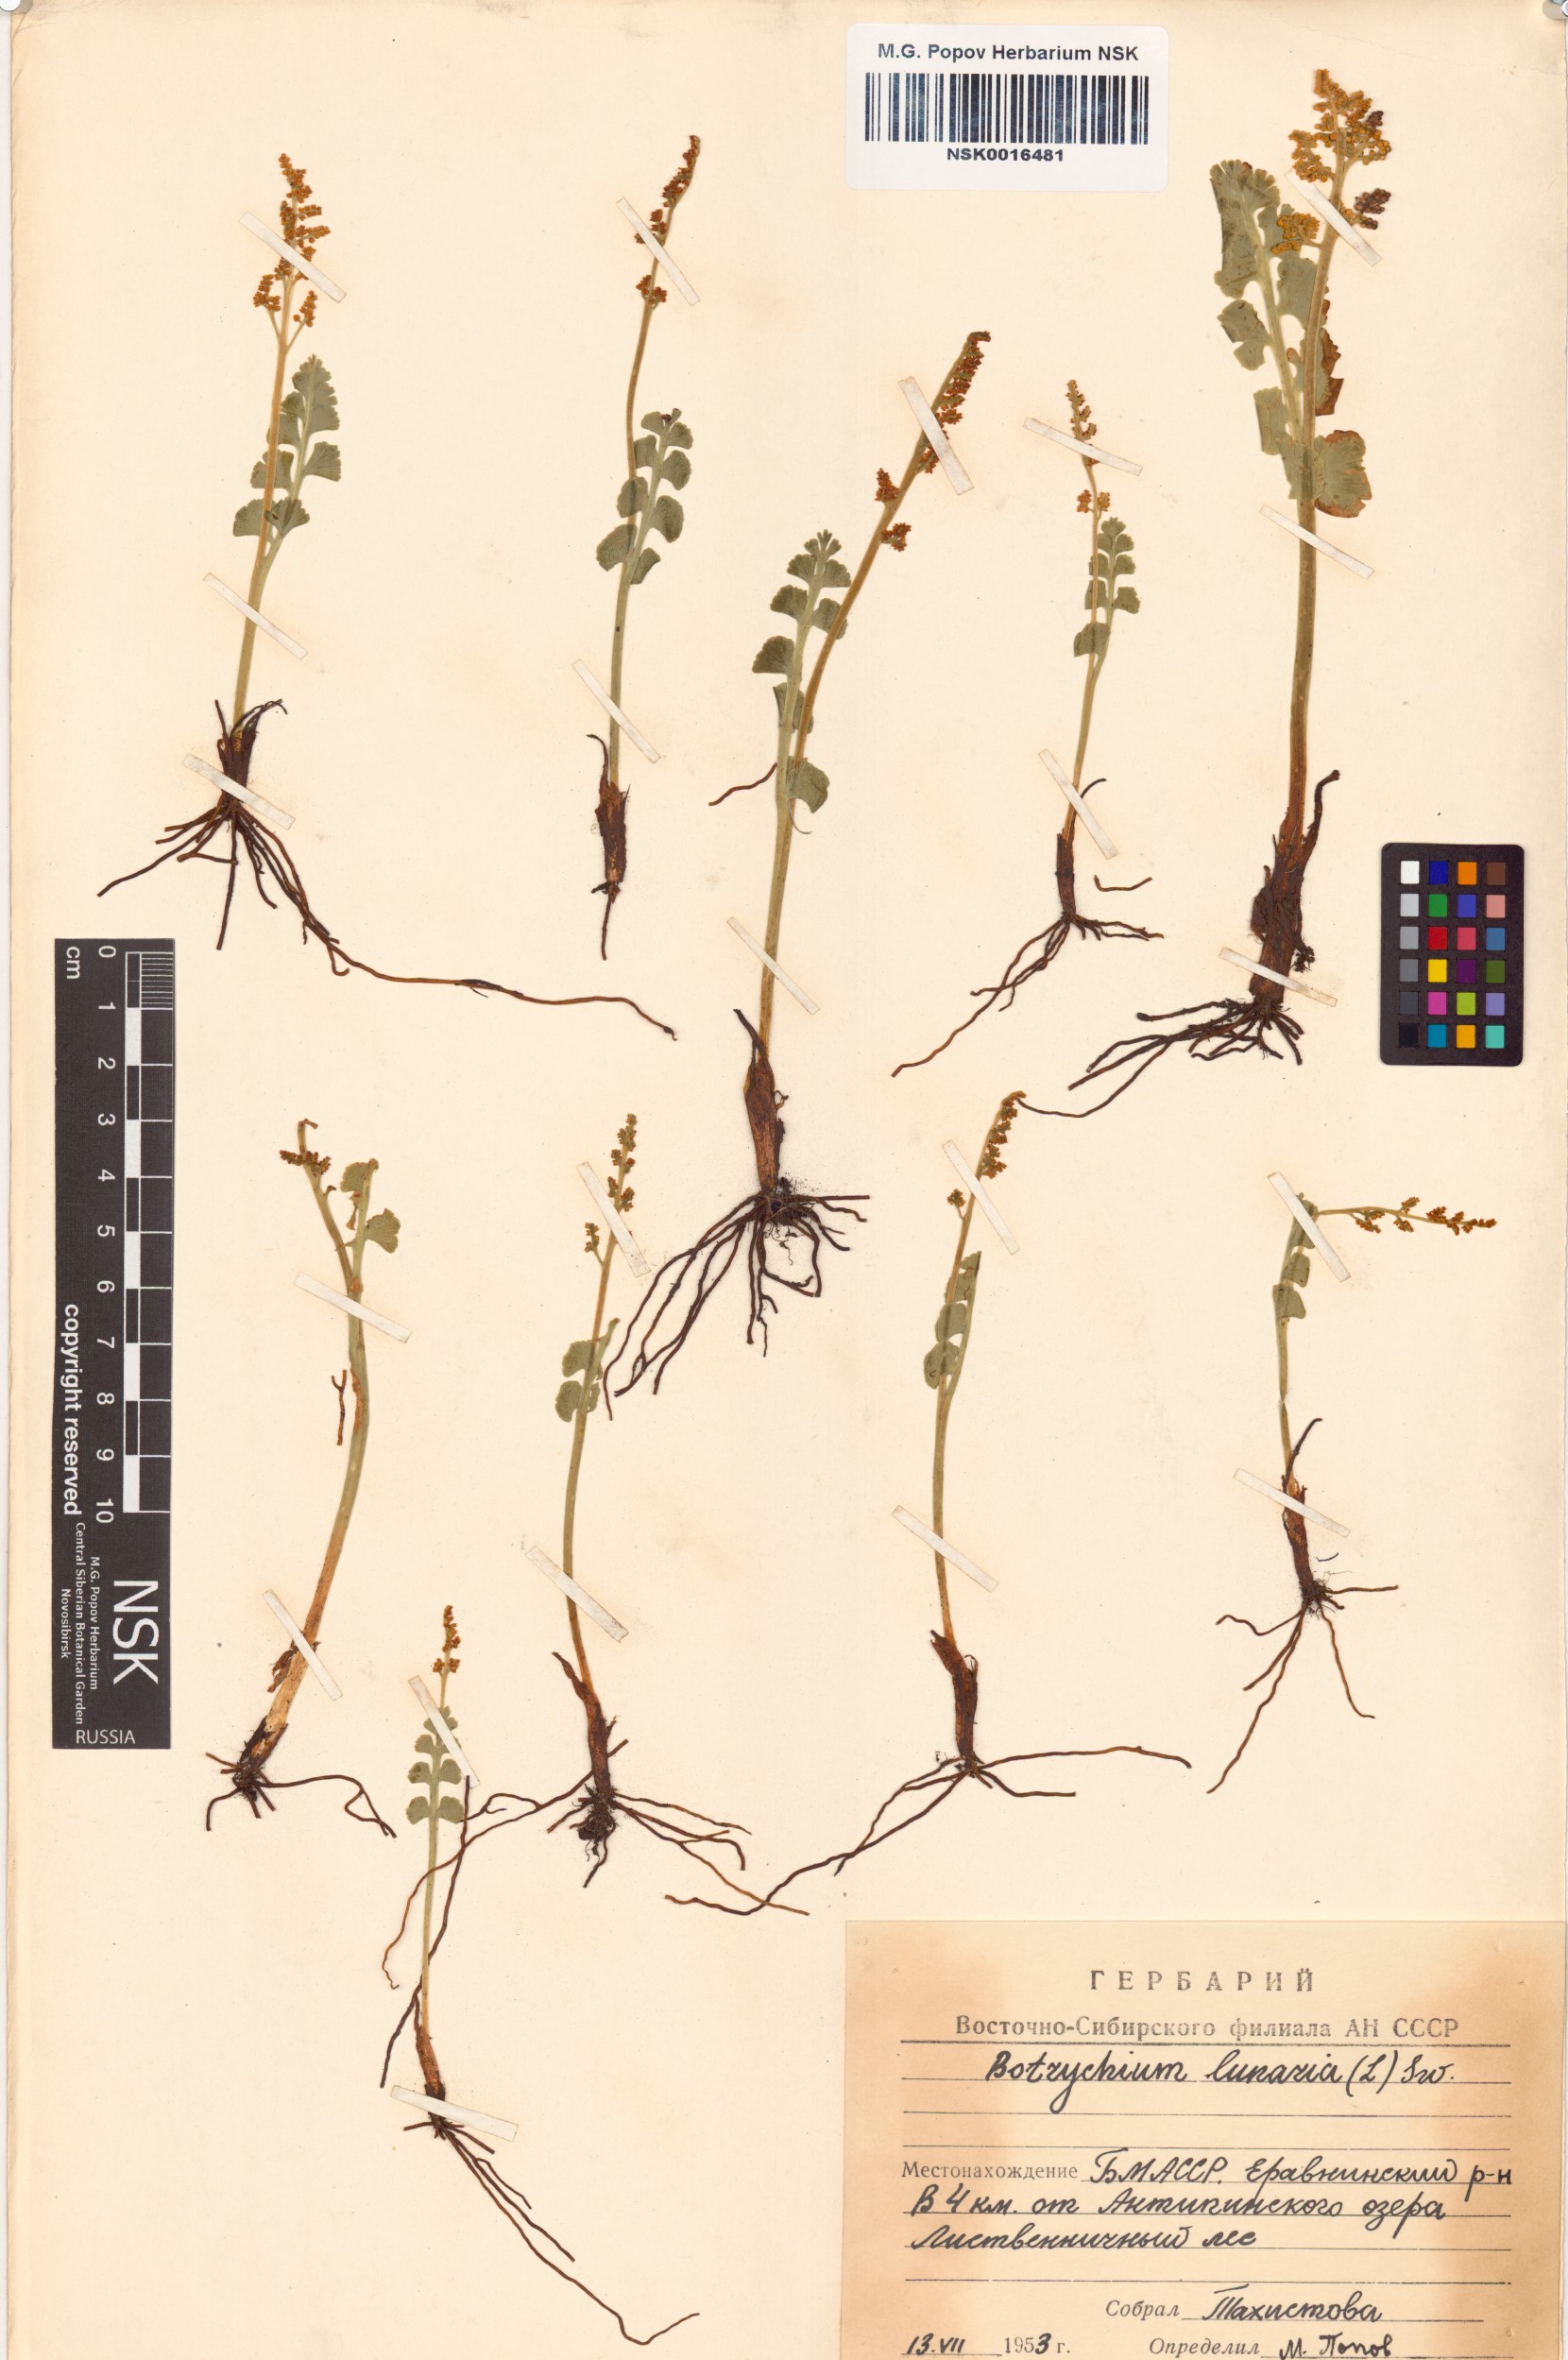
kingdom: Plantae
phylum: Tracheophyta
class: Polypodiopsida
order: Ophioglossales
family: Ophioglossaceae
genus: Botrychium
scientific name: Botrychium lunaria
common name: Moonwort
